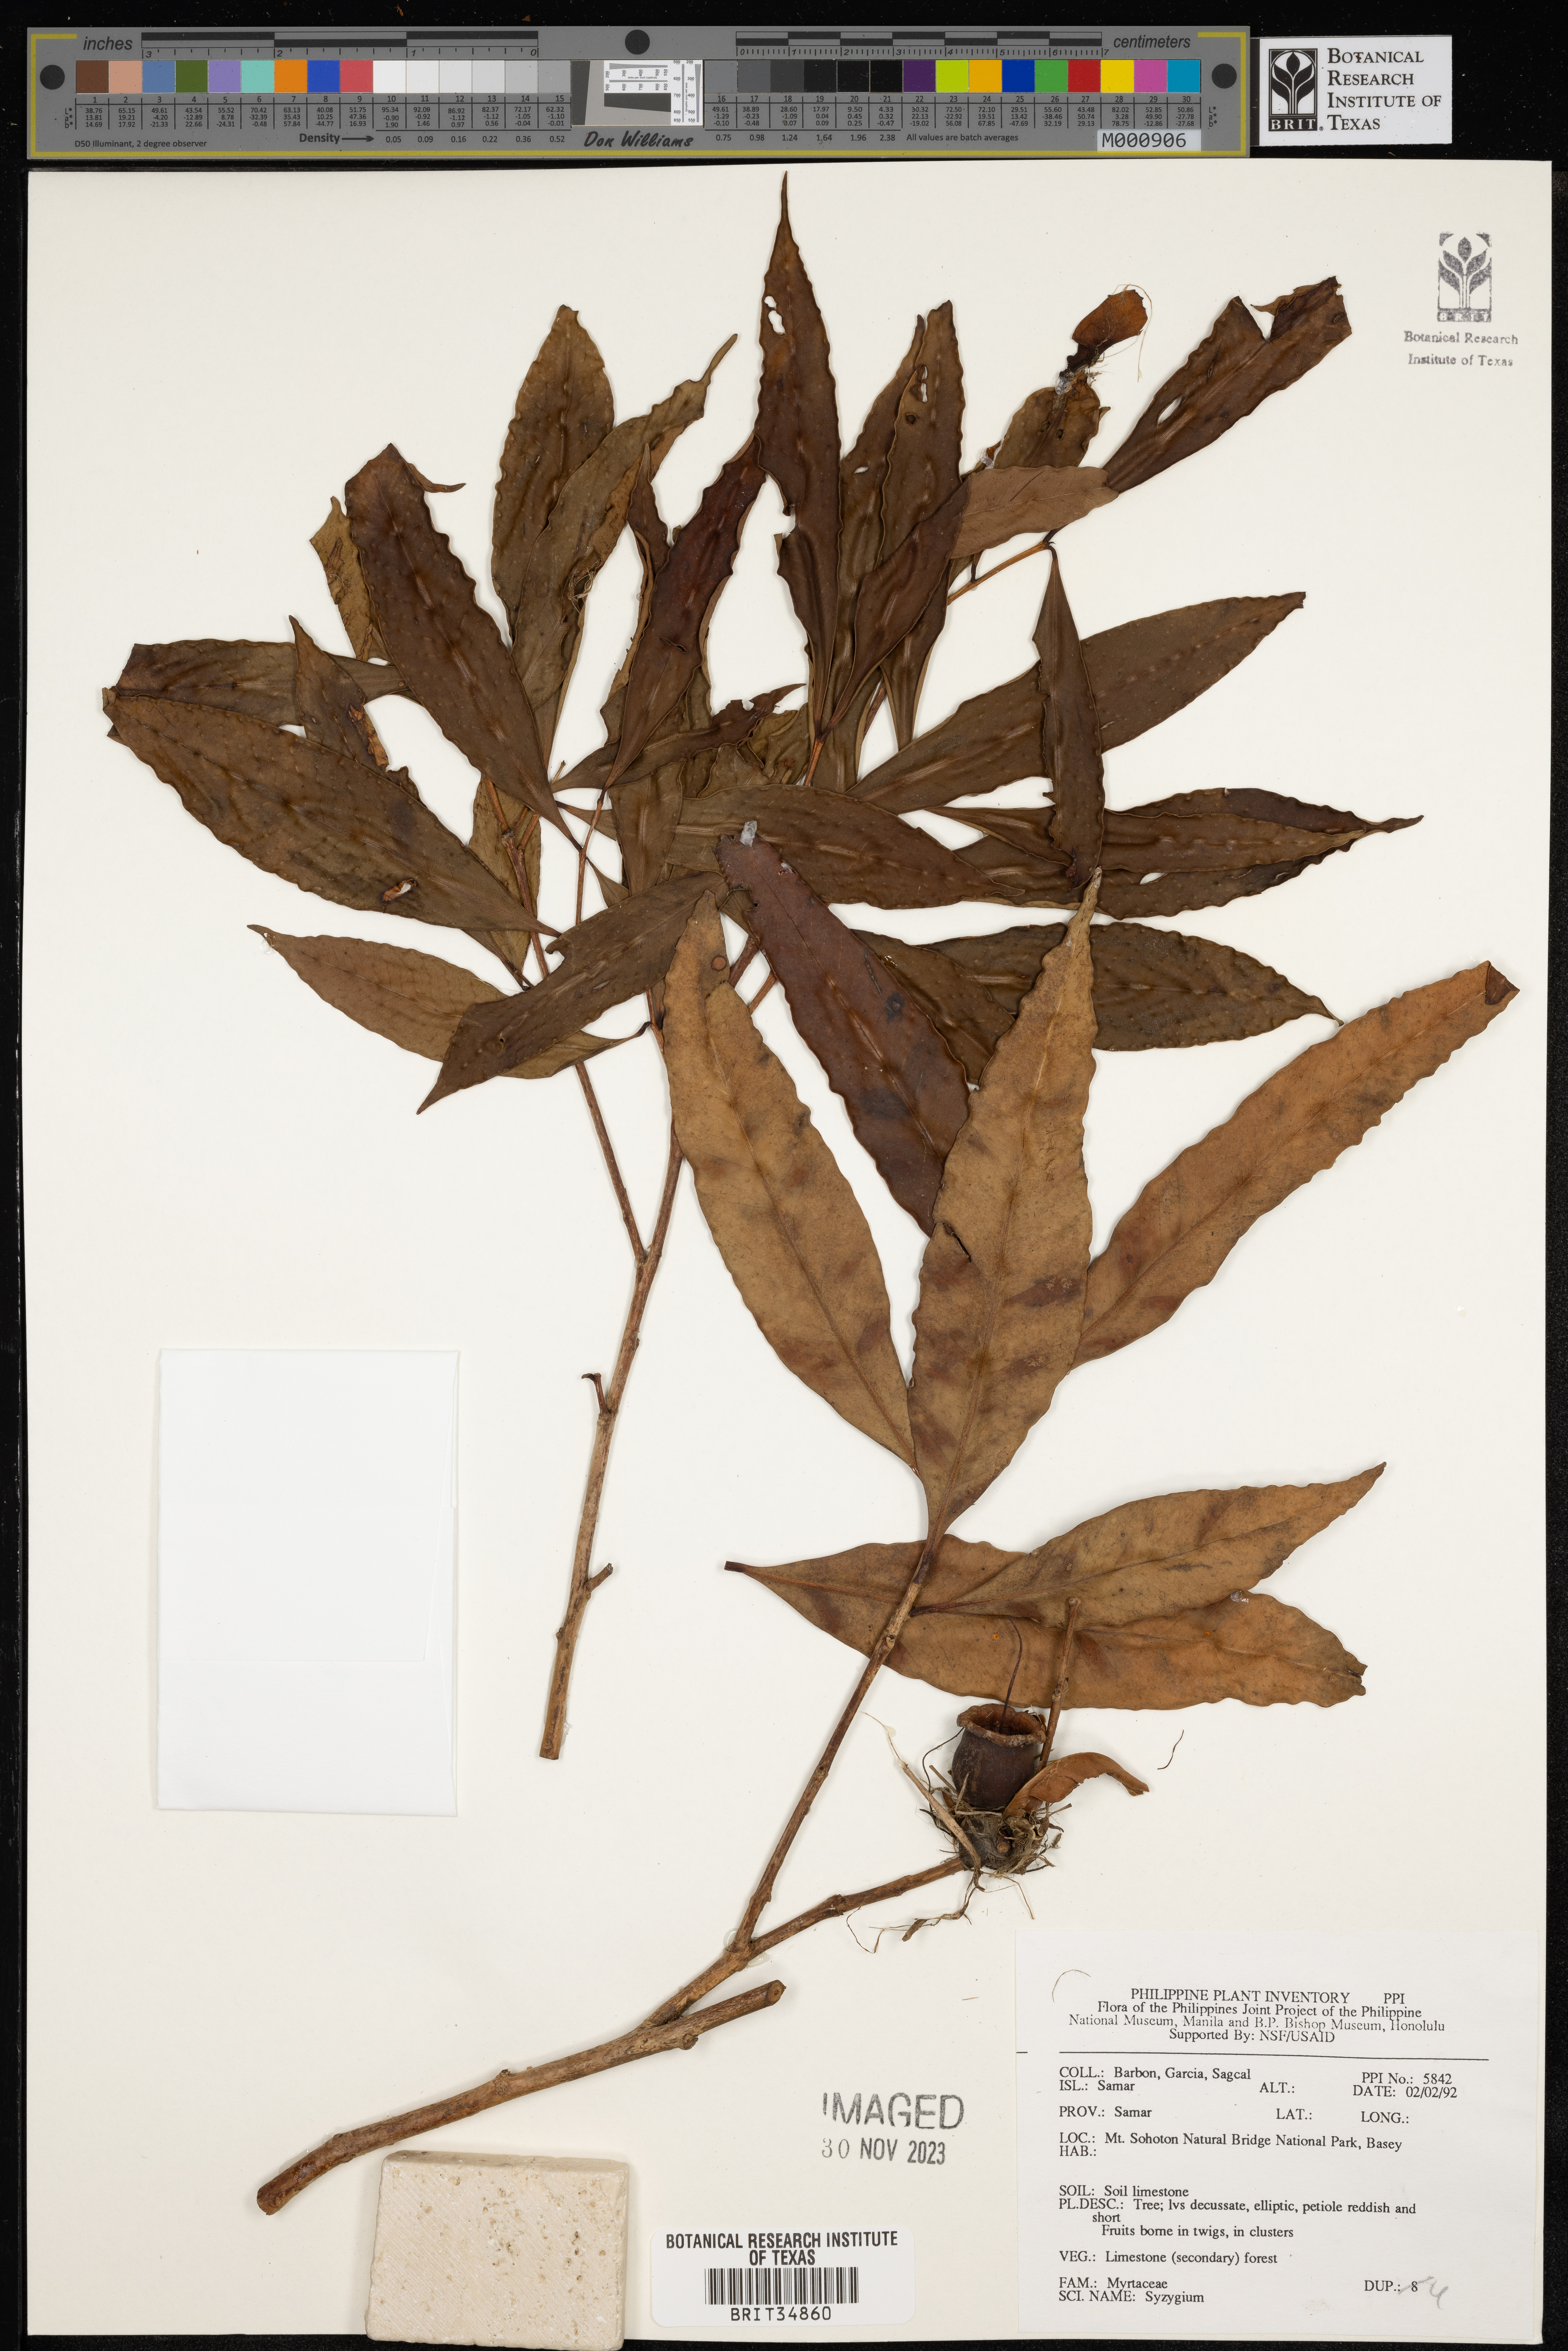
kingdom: Plantae
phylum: Tracheophyta
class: Magnoliopsida
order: Myrtales
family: Myrtaceae
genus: Syzygium
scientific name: Syzygium
